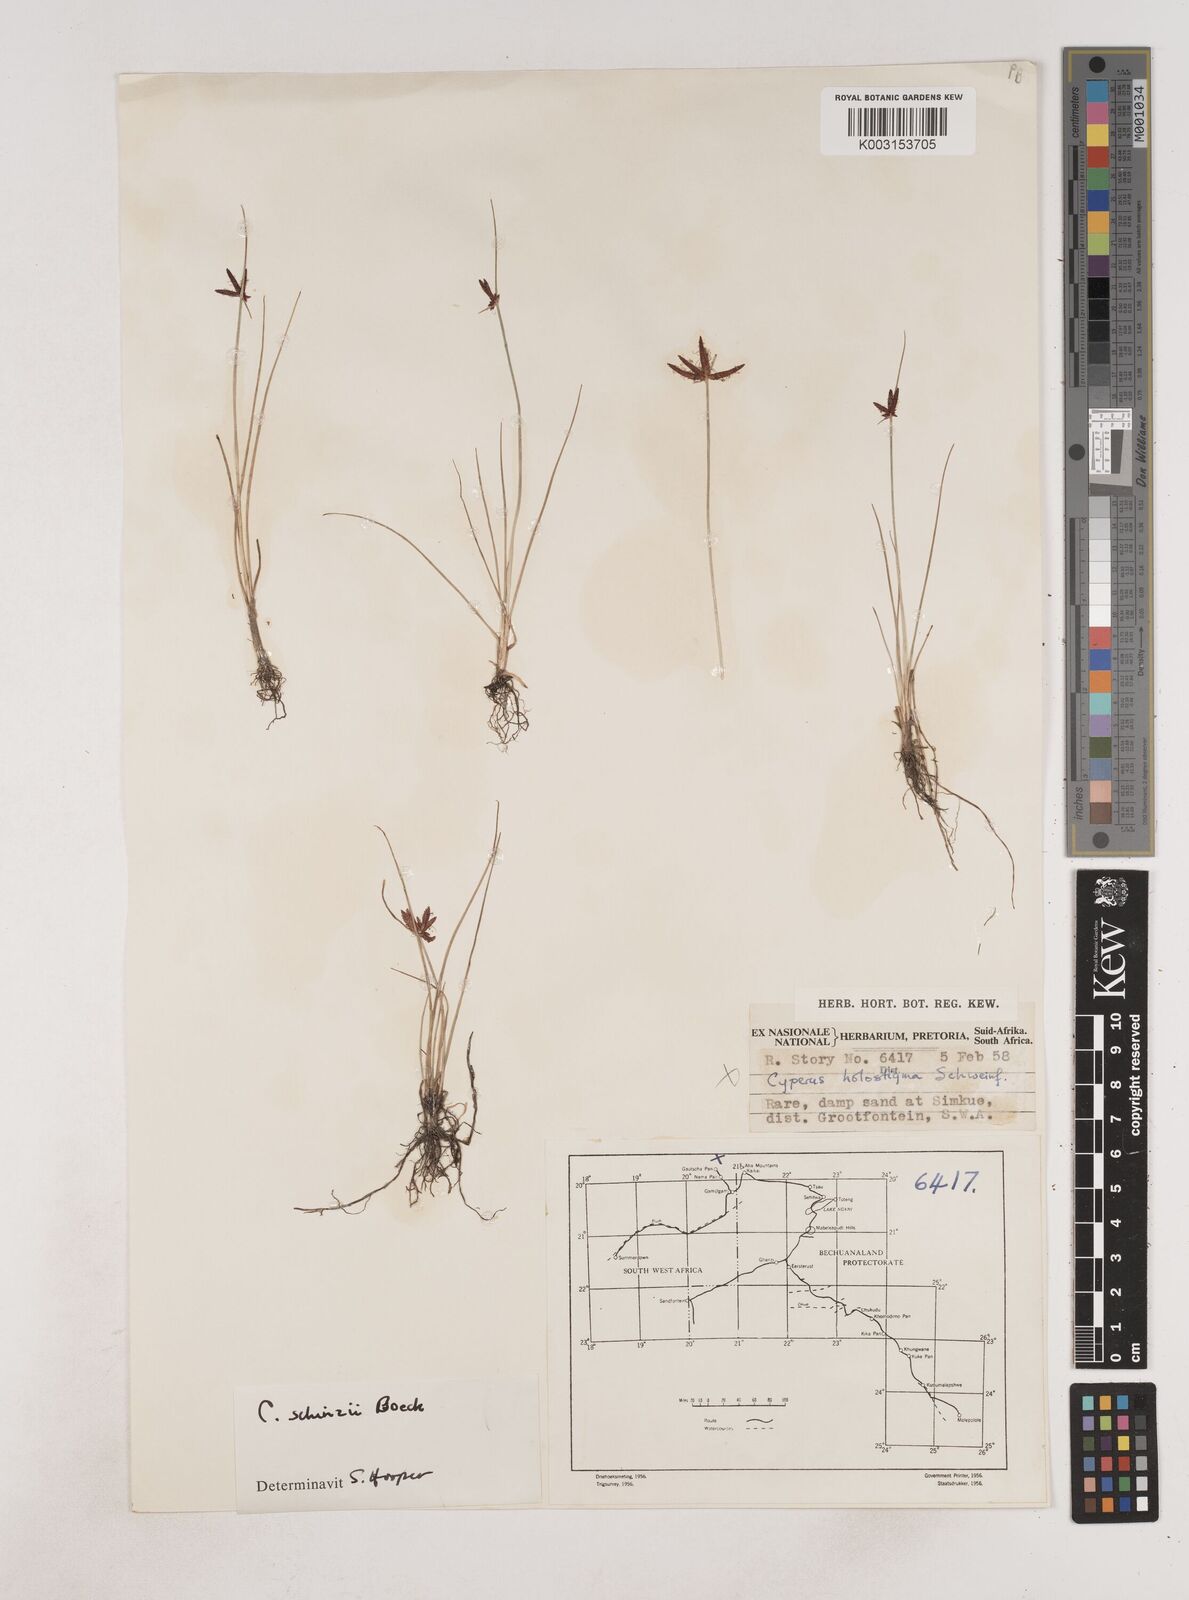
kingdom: Plantae
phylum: Tracheophyta
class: Liliopsida
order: Poales
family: Cyperaceae
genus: Cyperus
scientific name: Cyperus semitrifidus
